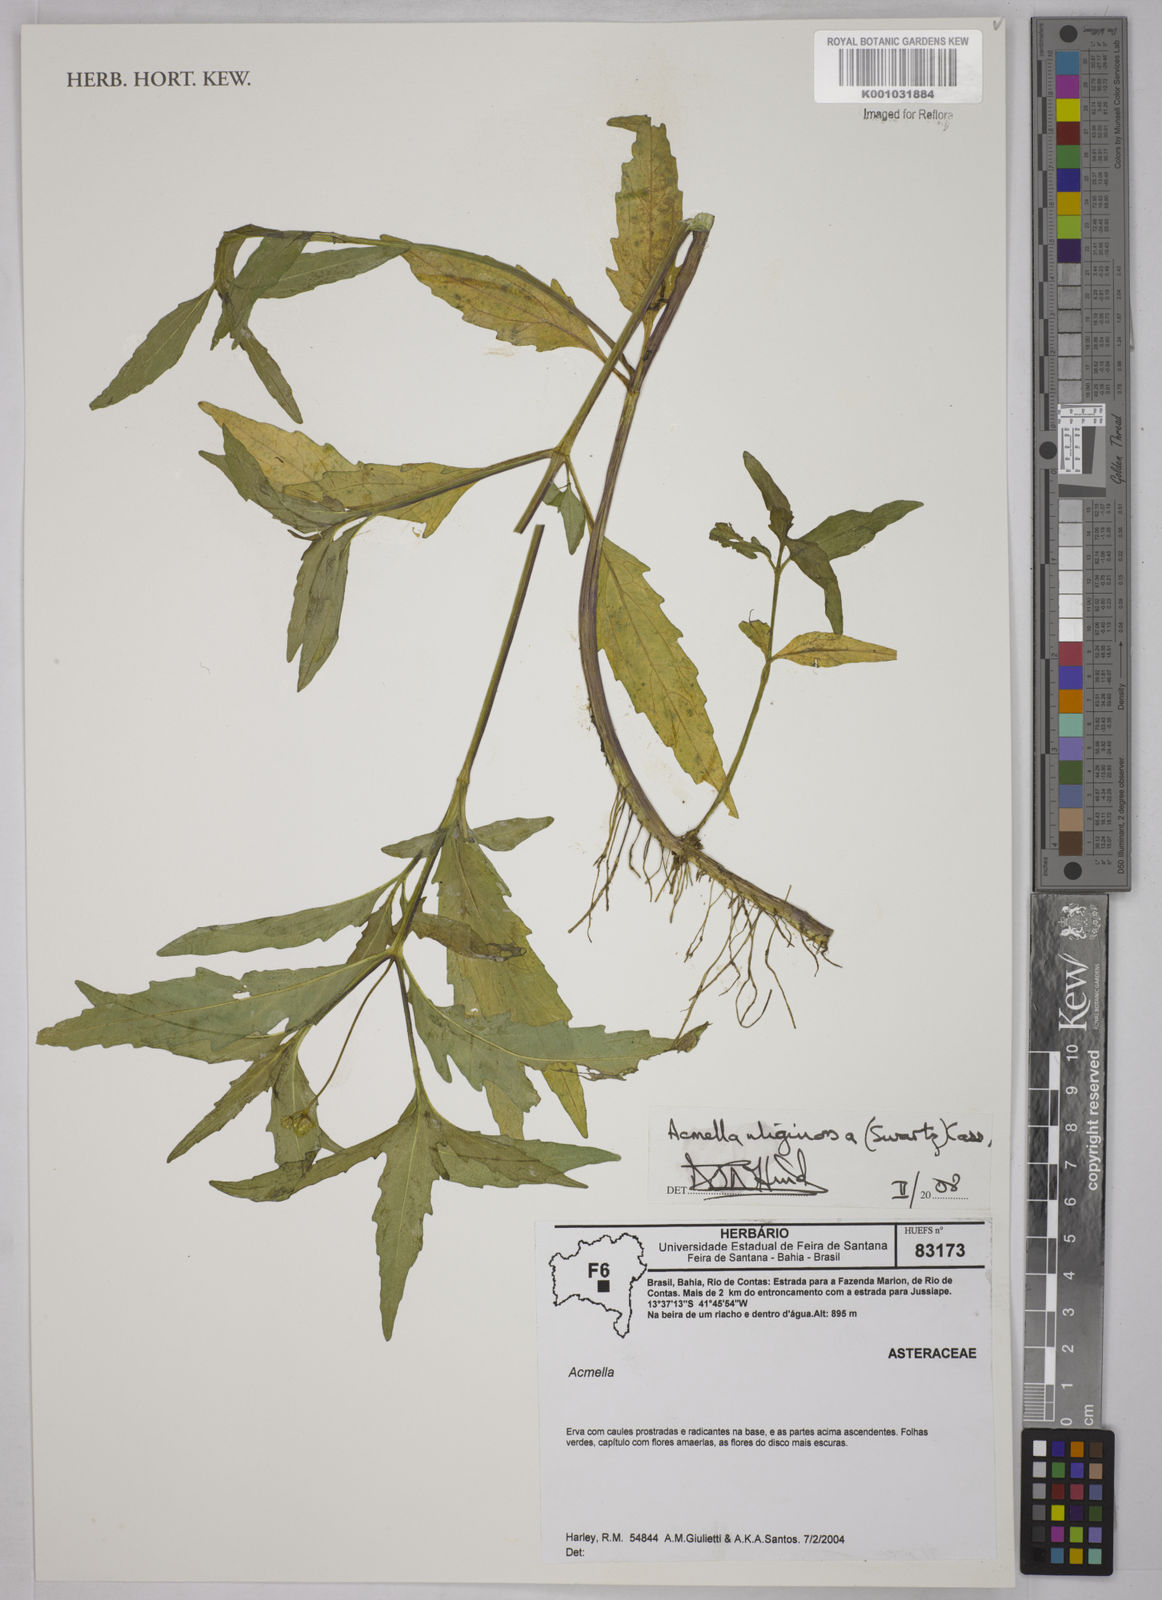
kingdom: Plantae
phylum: Tracheophyta
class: Magnoliopsida
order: Asterales
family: Asteraceae
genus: Acmella
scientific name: Acmella uliginosa
